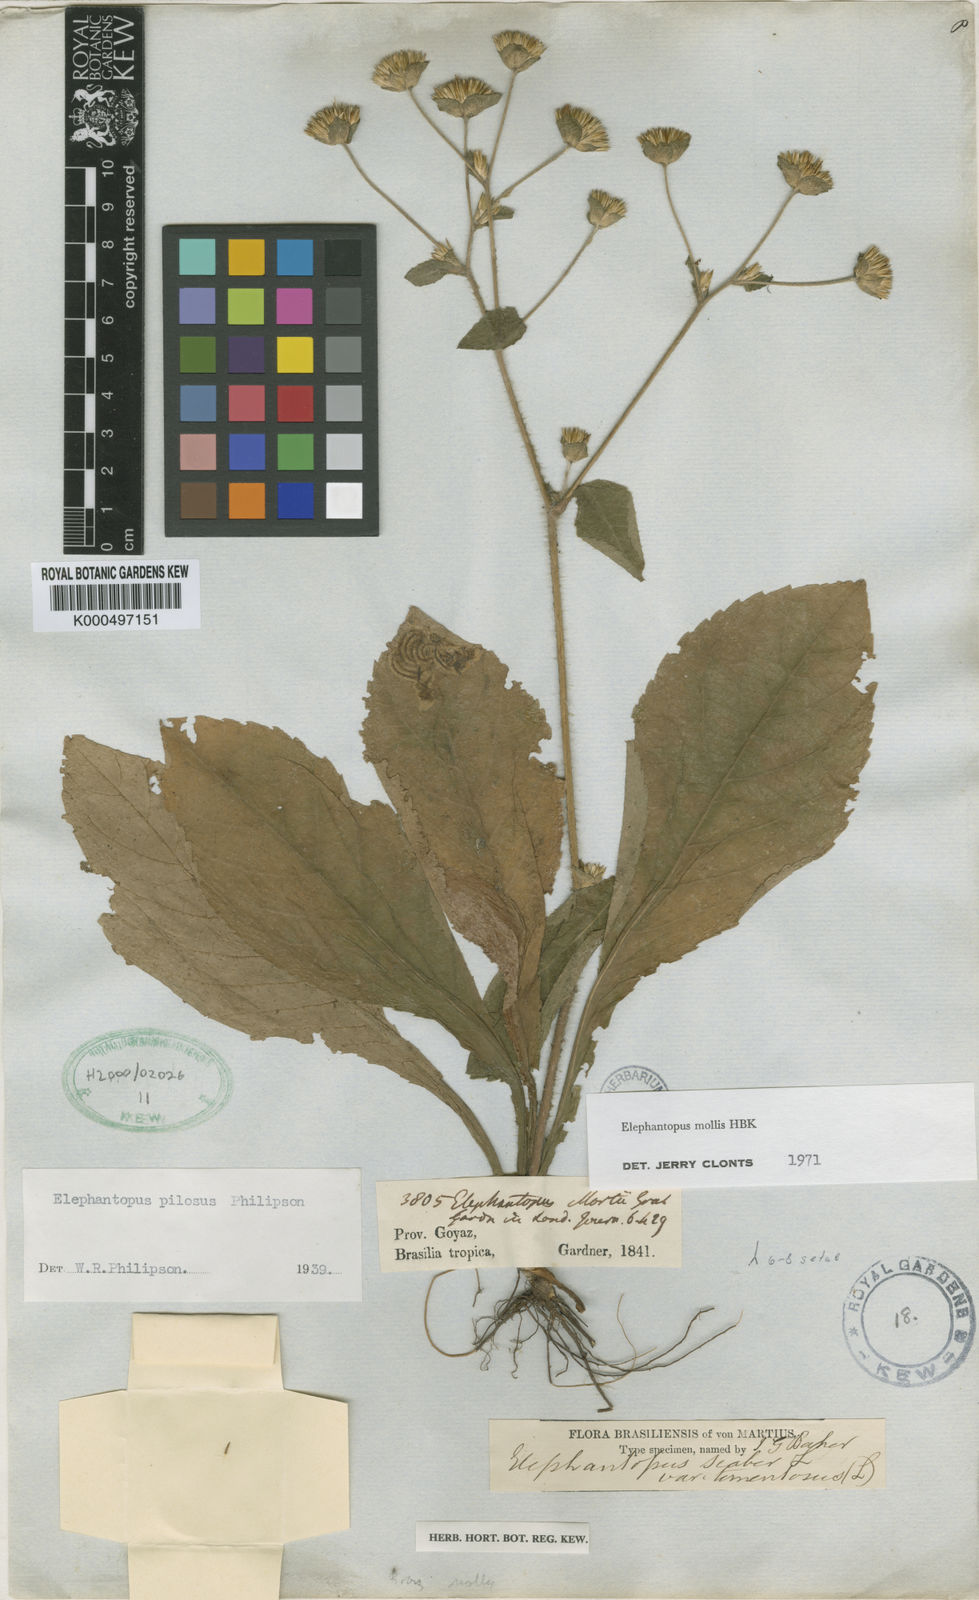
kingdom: Plantae
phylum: Tracheophyta
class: Magnoliopsida
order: Asterales
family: Asteraceae
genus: Elephantopus
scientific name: Elephantopus mollis
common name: Soft elephantsfoot
